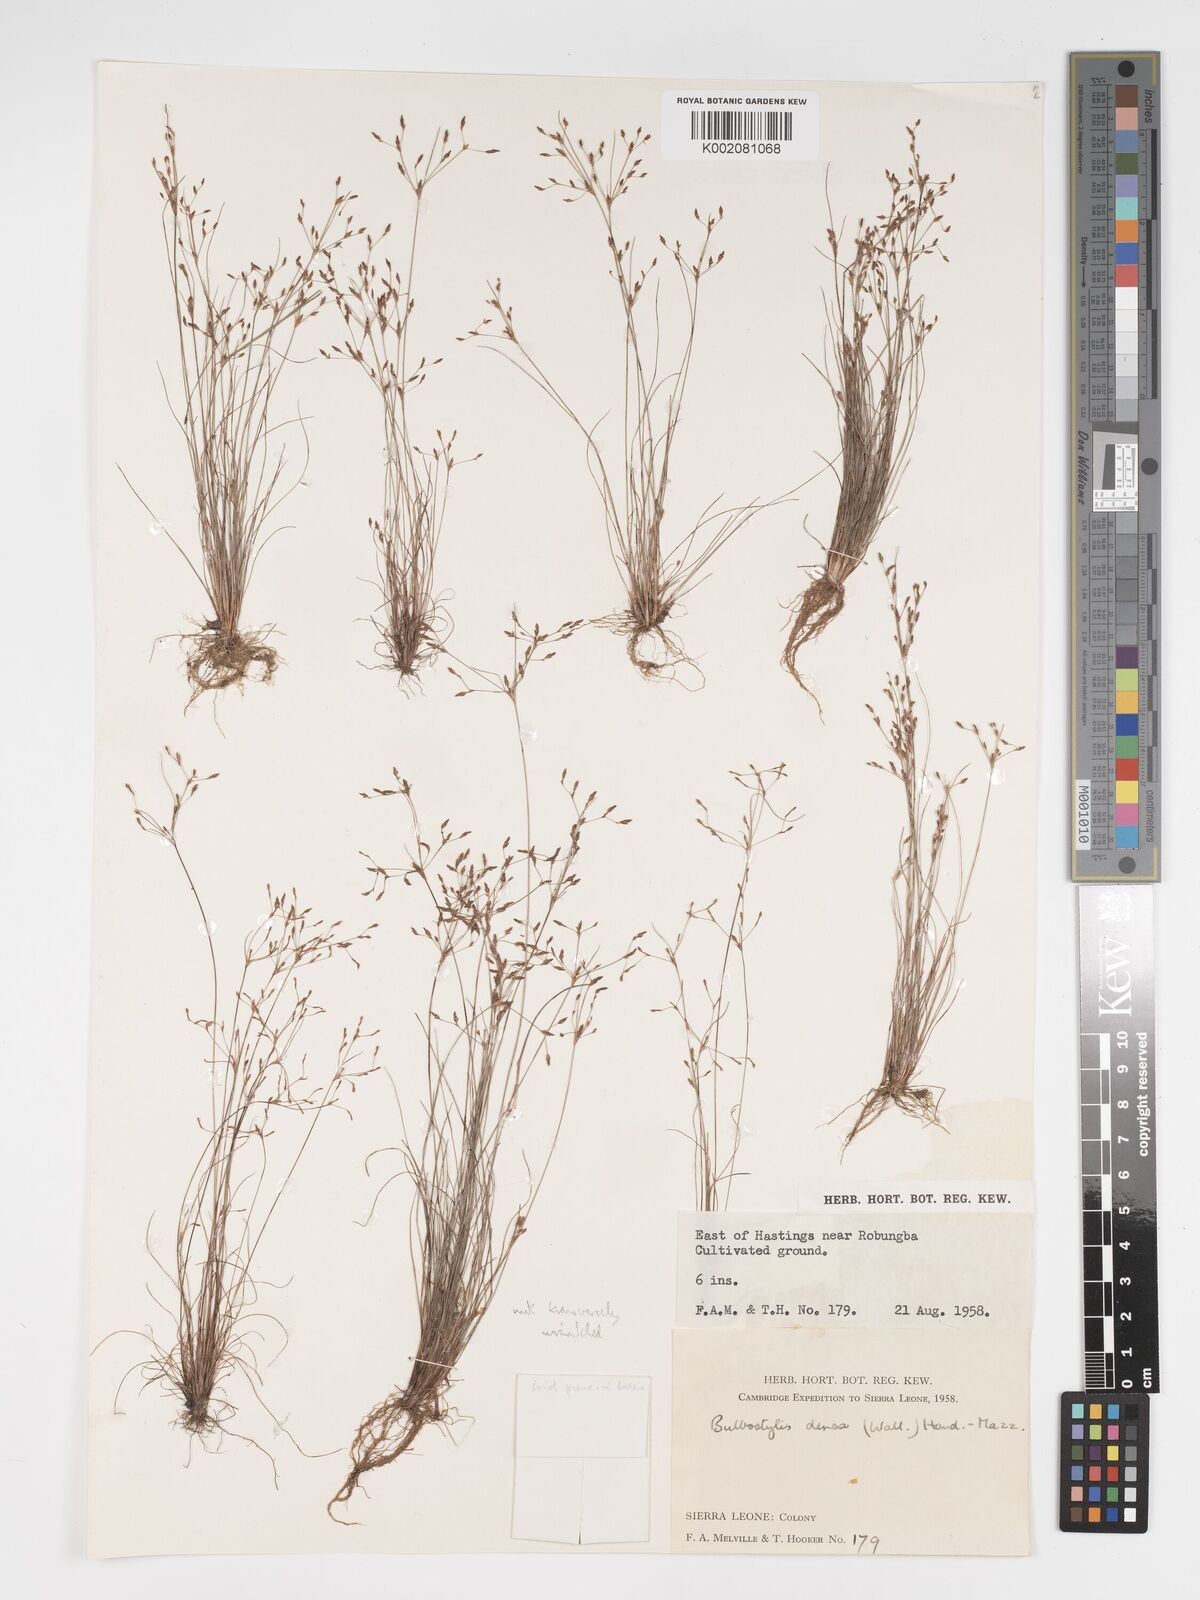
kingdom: Plantae
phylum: Tracheophyta
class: Liliopsida
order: Poales
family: Cyperaceae
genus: Bulbostylis
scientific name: Bulbostylis densa
